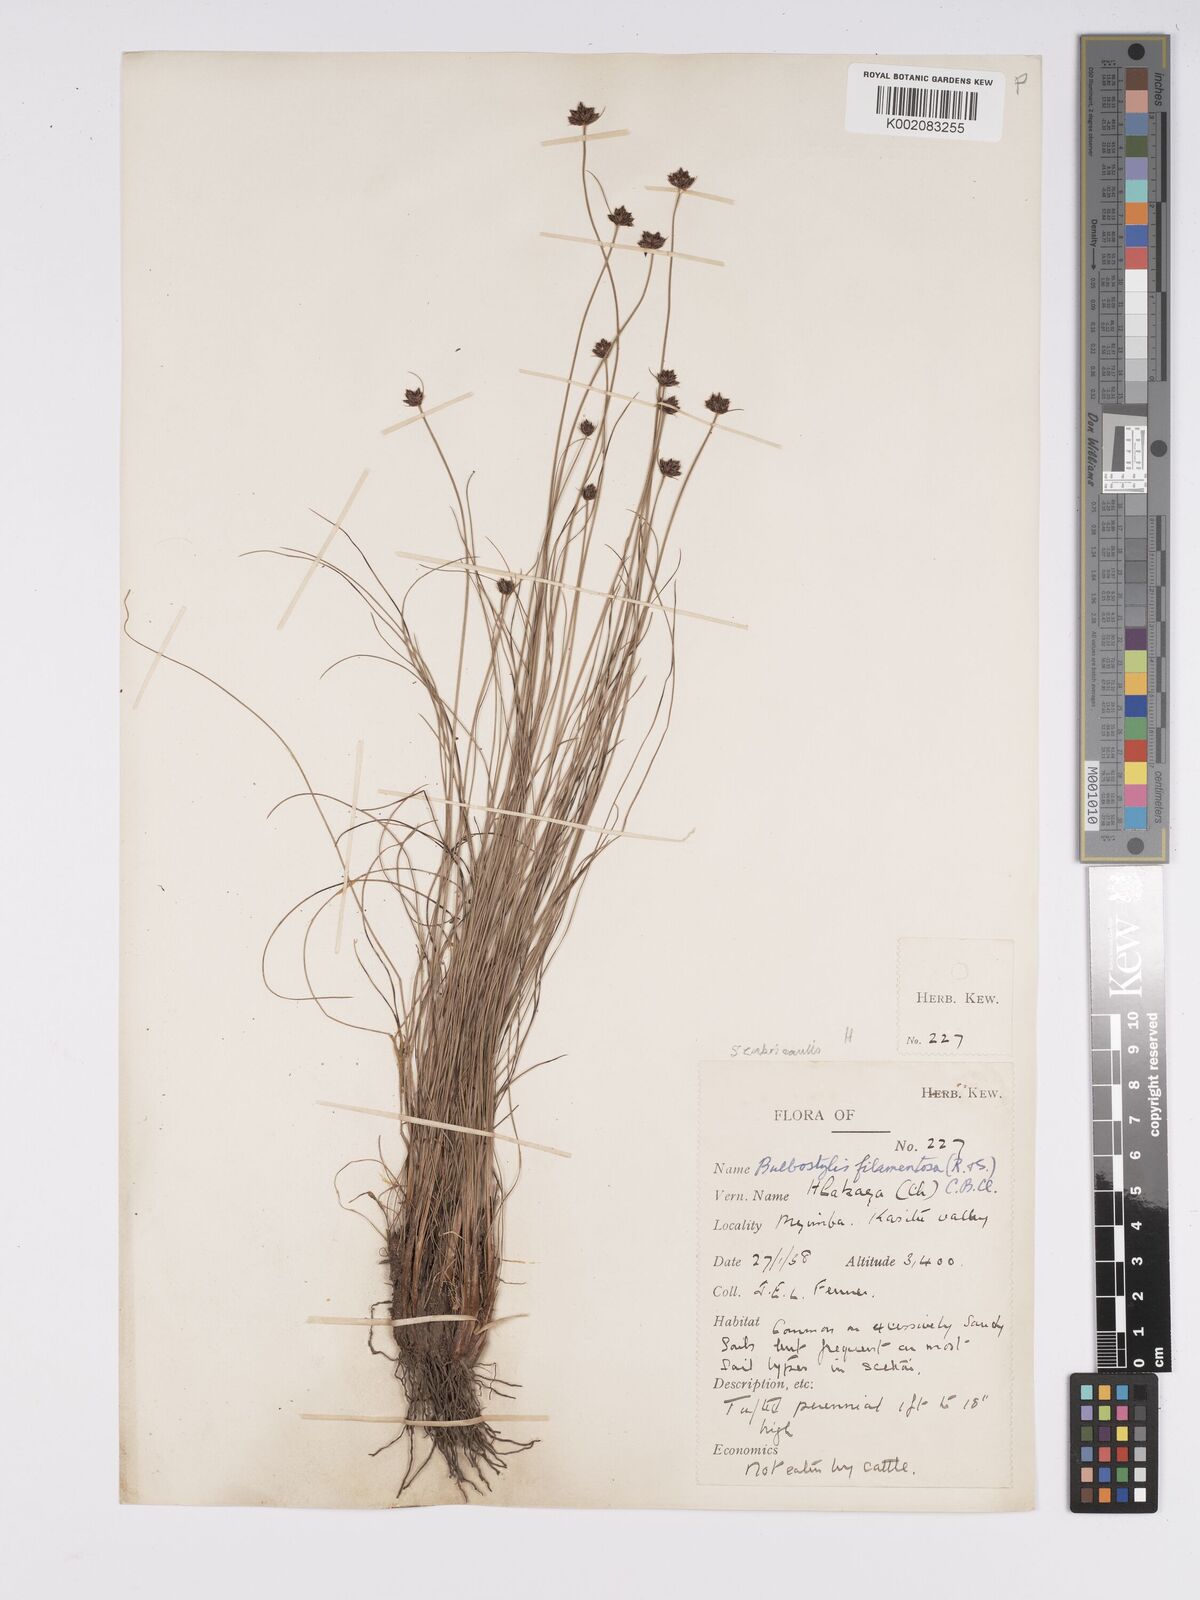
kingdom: Plantae
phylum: Tracheophyta
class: Liliopsida
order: Poales
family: Cyperaceae
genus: Bulbostylis
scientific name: Bulbostylis scabricaulis
